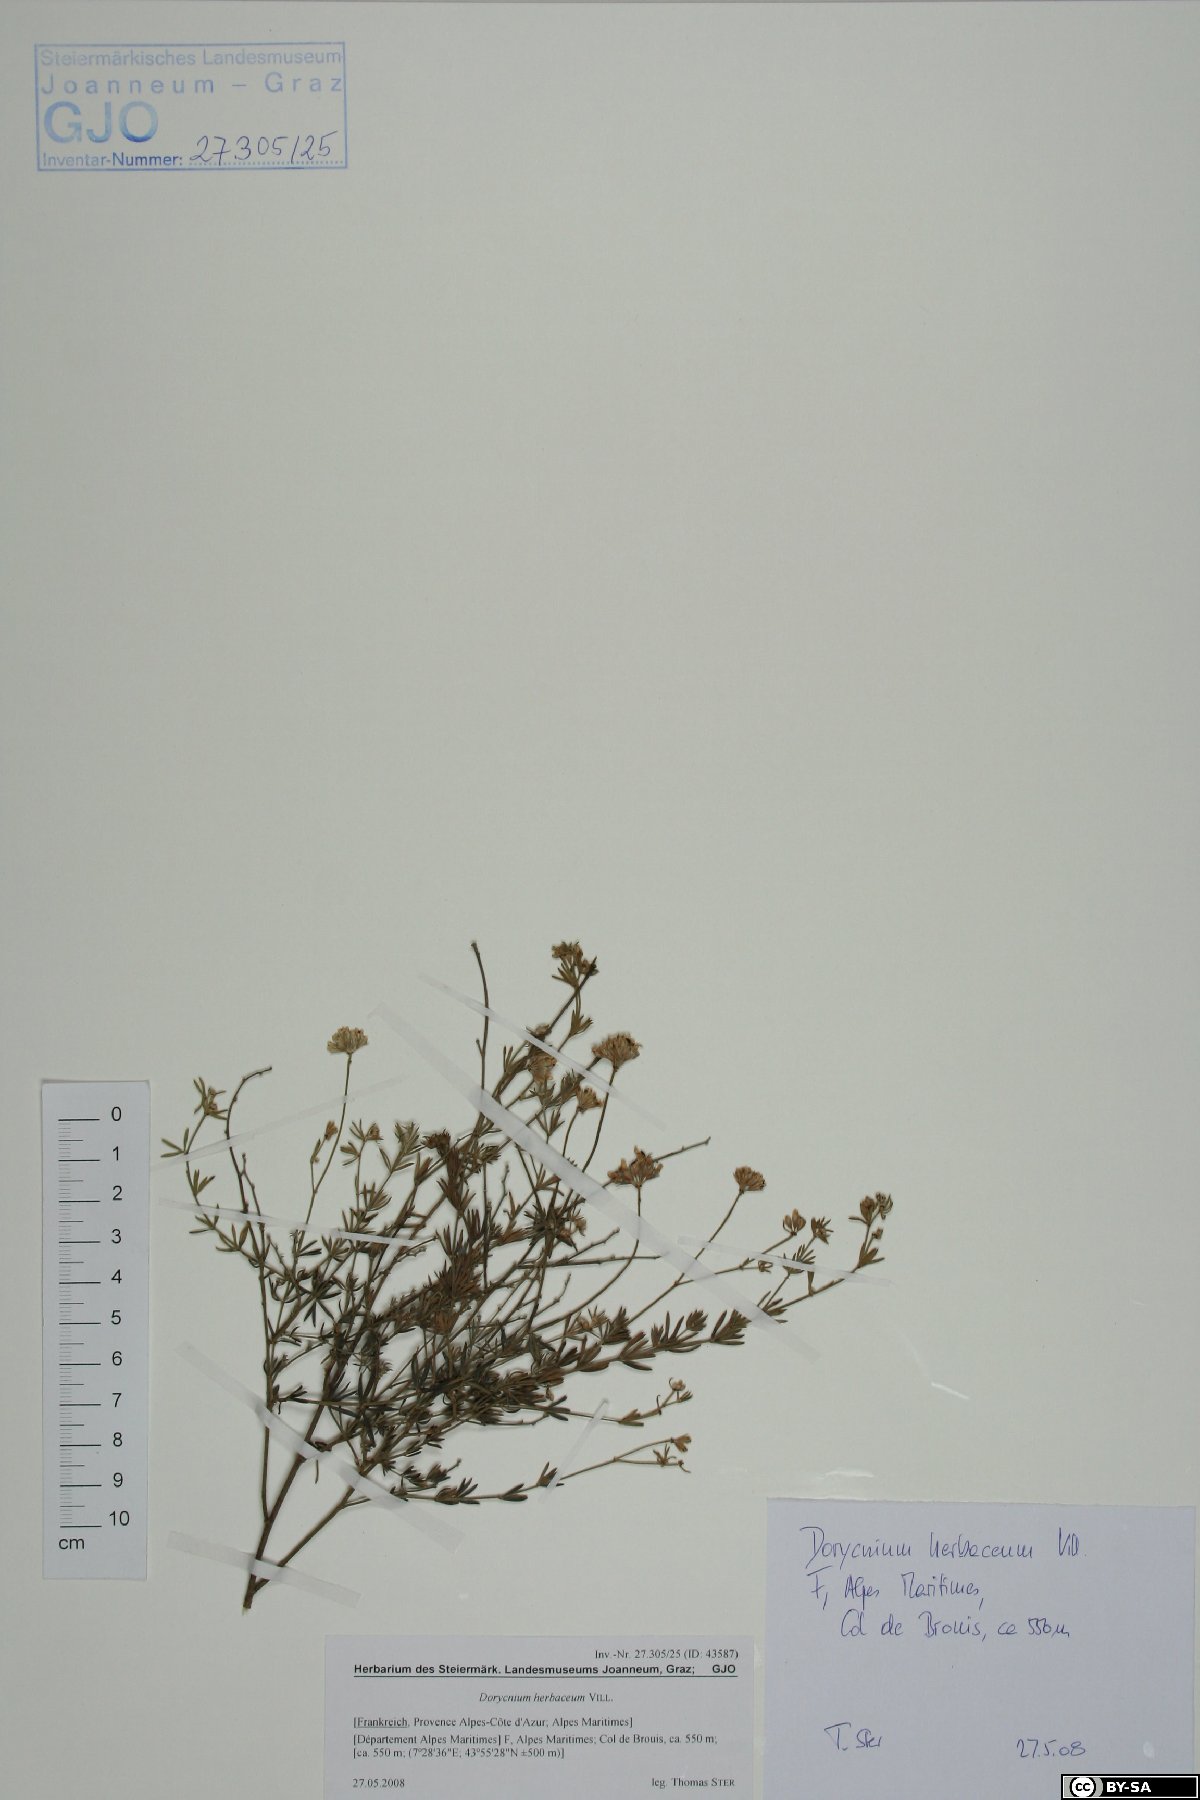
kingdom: Plantae
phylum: Tracheophyta
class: Magnoliopsida
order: Fabales
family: Fabaceae
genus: Lotus
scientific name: Lotus herbaceus
